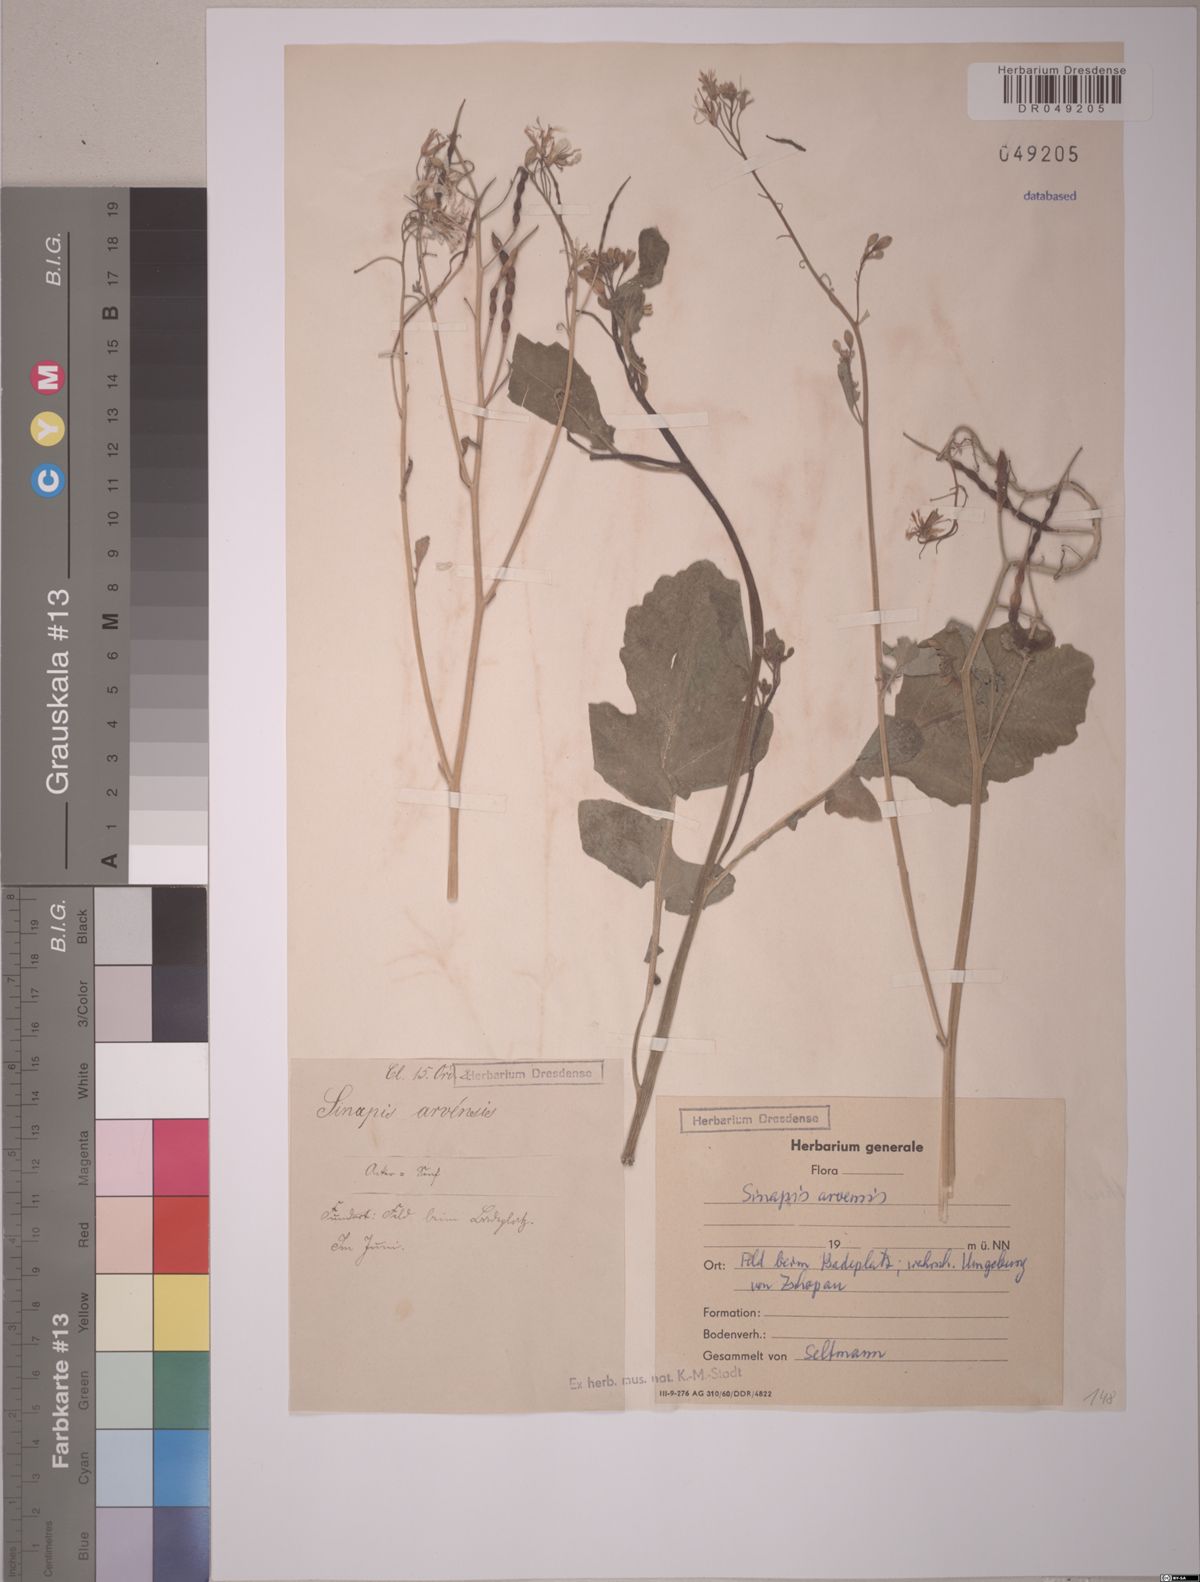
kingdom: Plantae
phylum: Tracheophyta
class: Magnoliopsida
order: Brassicales
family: Brassicaceae
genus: Sinapis
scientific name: Sinapis arvensis
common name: Charlock
